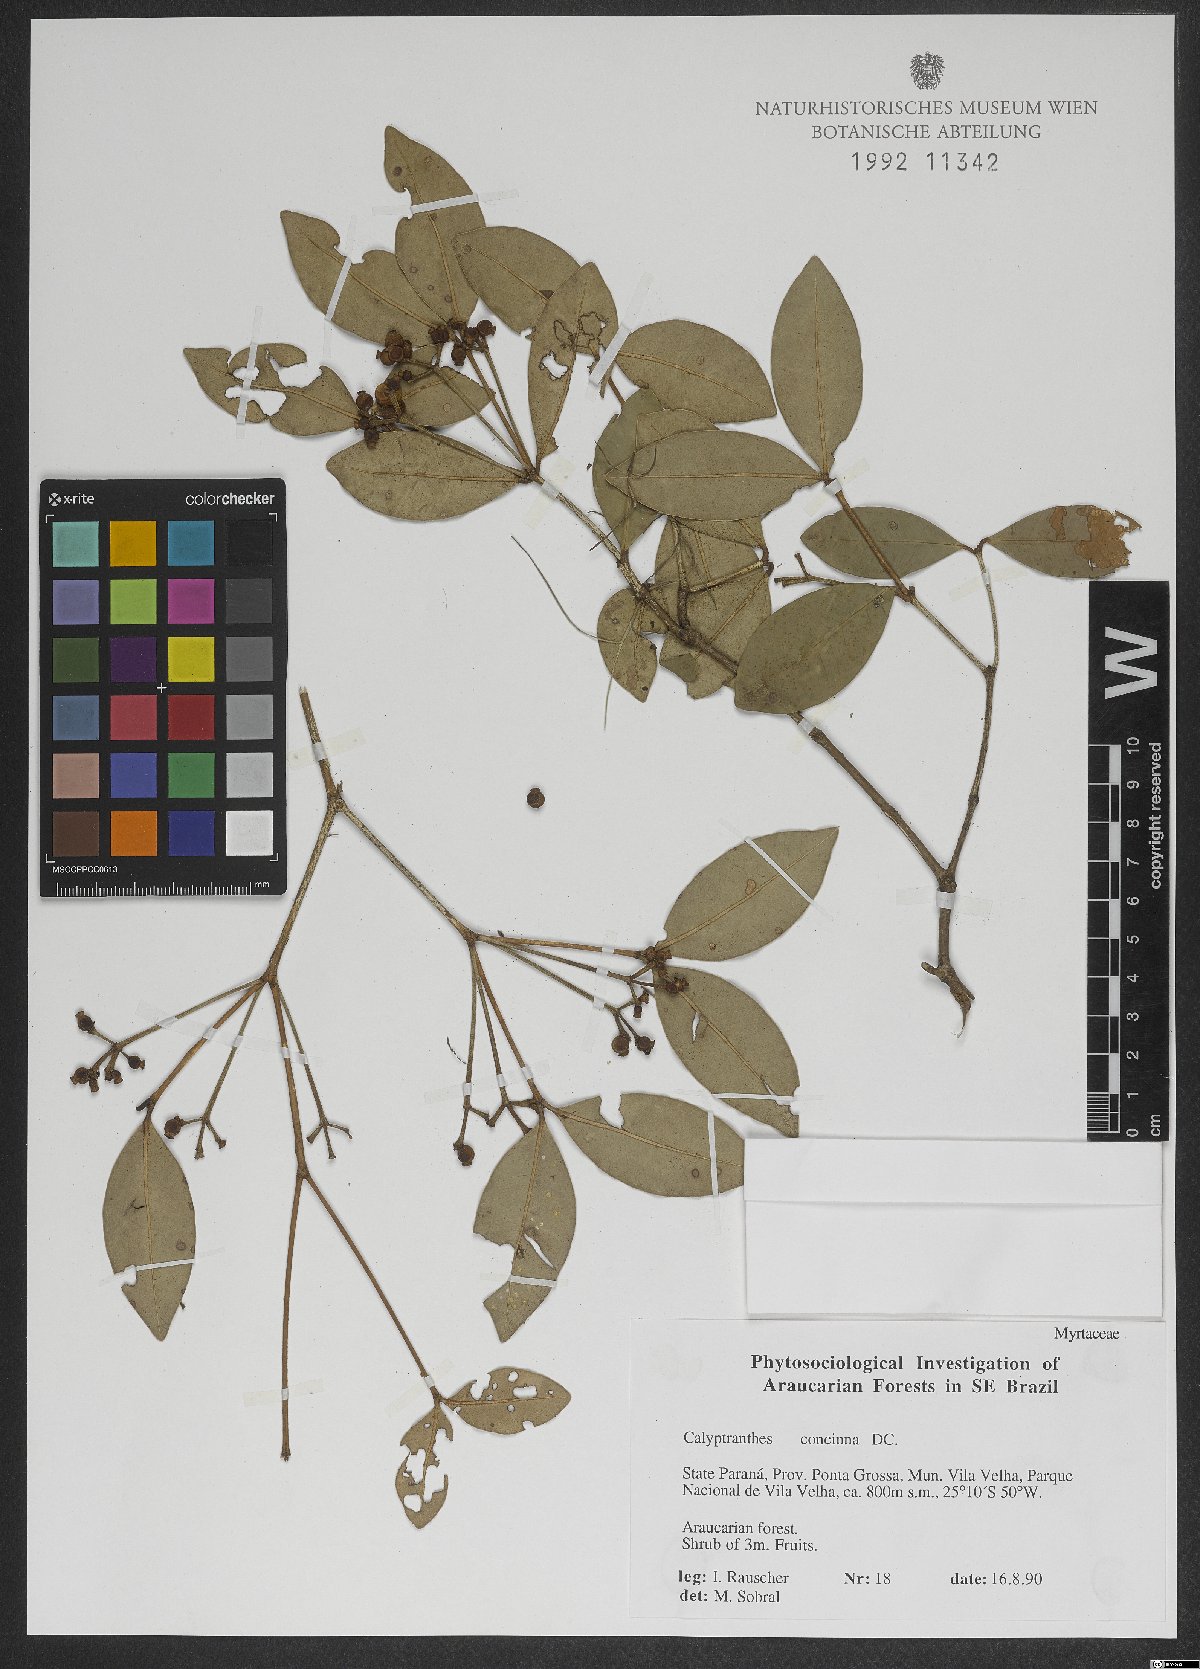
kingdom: Plantae
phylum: Tracheophyta
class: Magnoliopsida
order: Myrtales
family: Myrtaceae
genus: Myrcia
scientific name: Myrcia cruciflora
